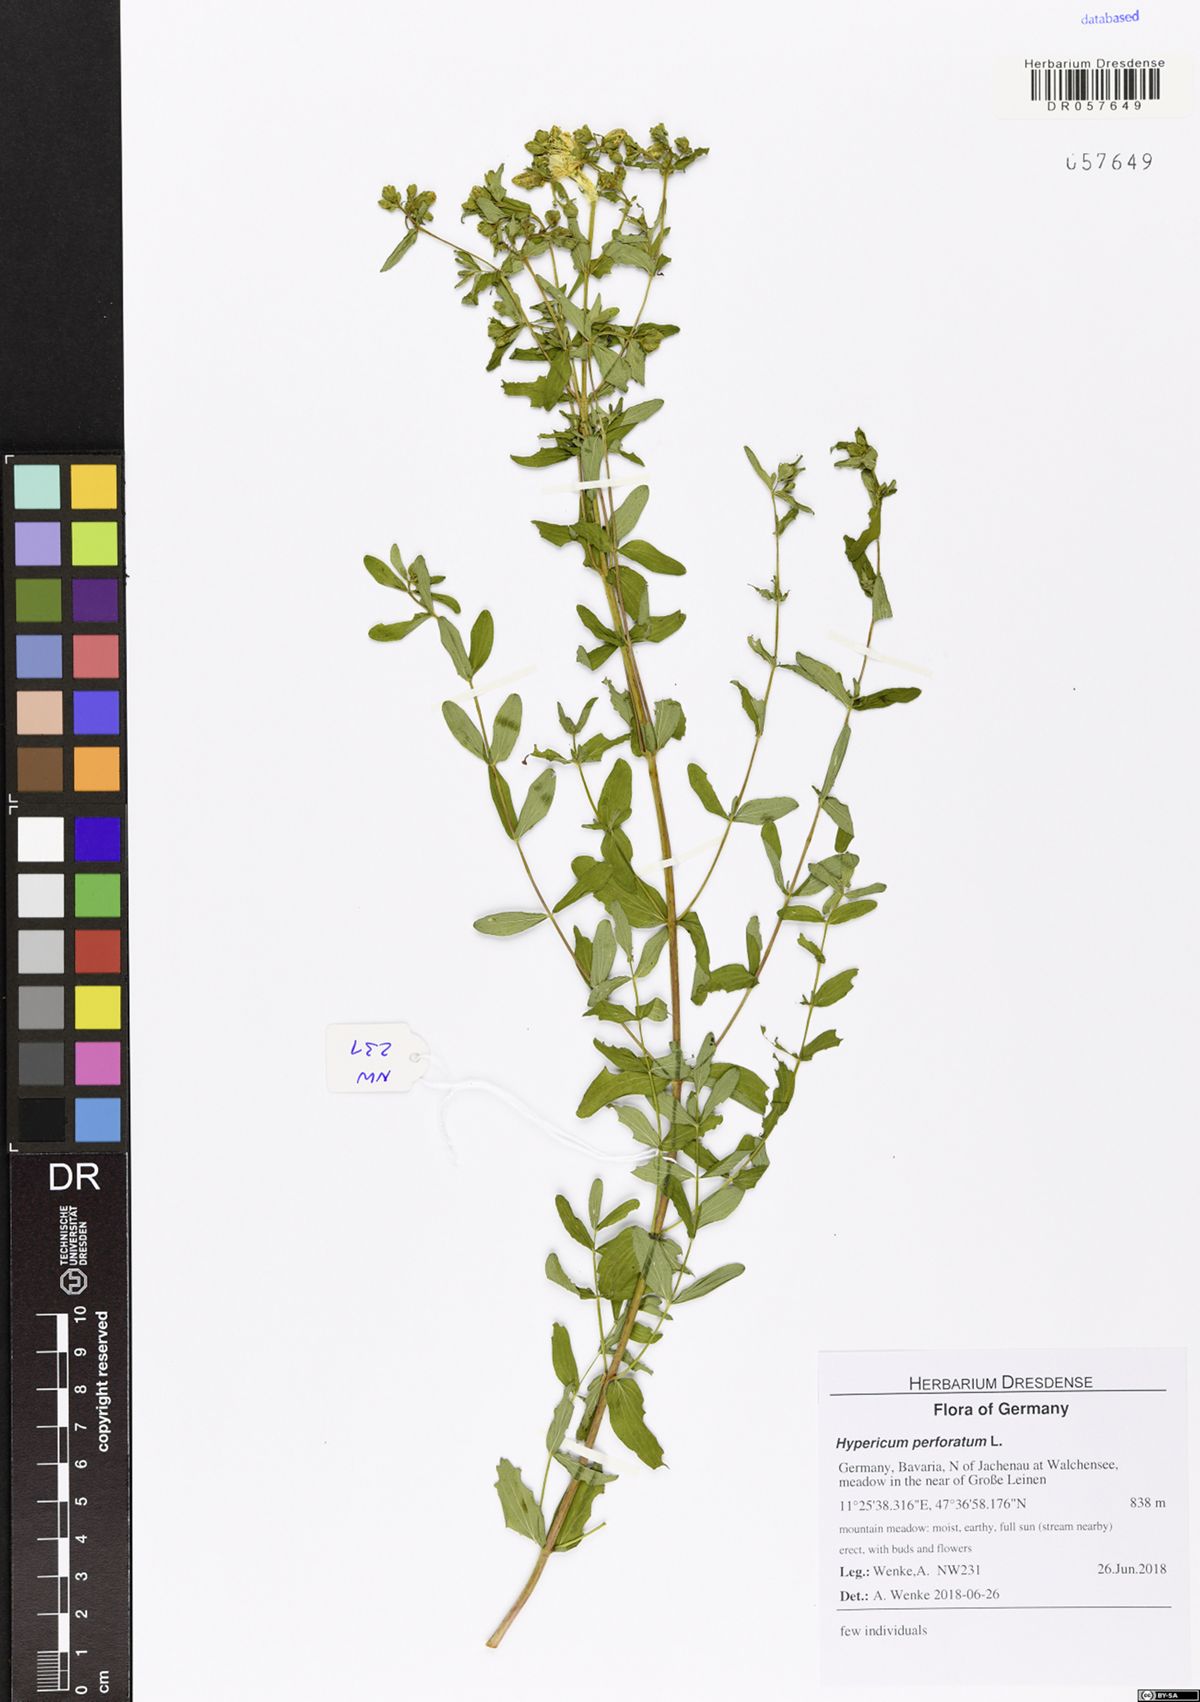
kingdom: Plantae
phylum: Tracheophyta
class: Magnoliopsida
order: Malpighiales
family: Hypericaceae
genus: Hypericum
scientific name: Hypericum perforatum
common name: Common st. johnswort
